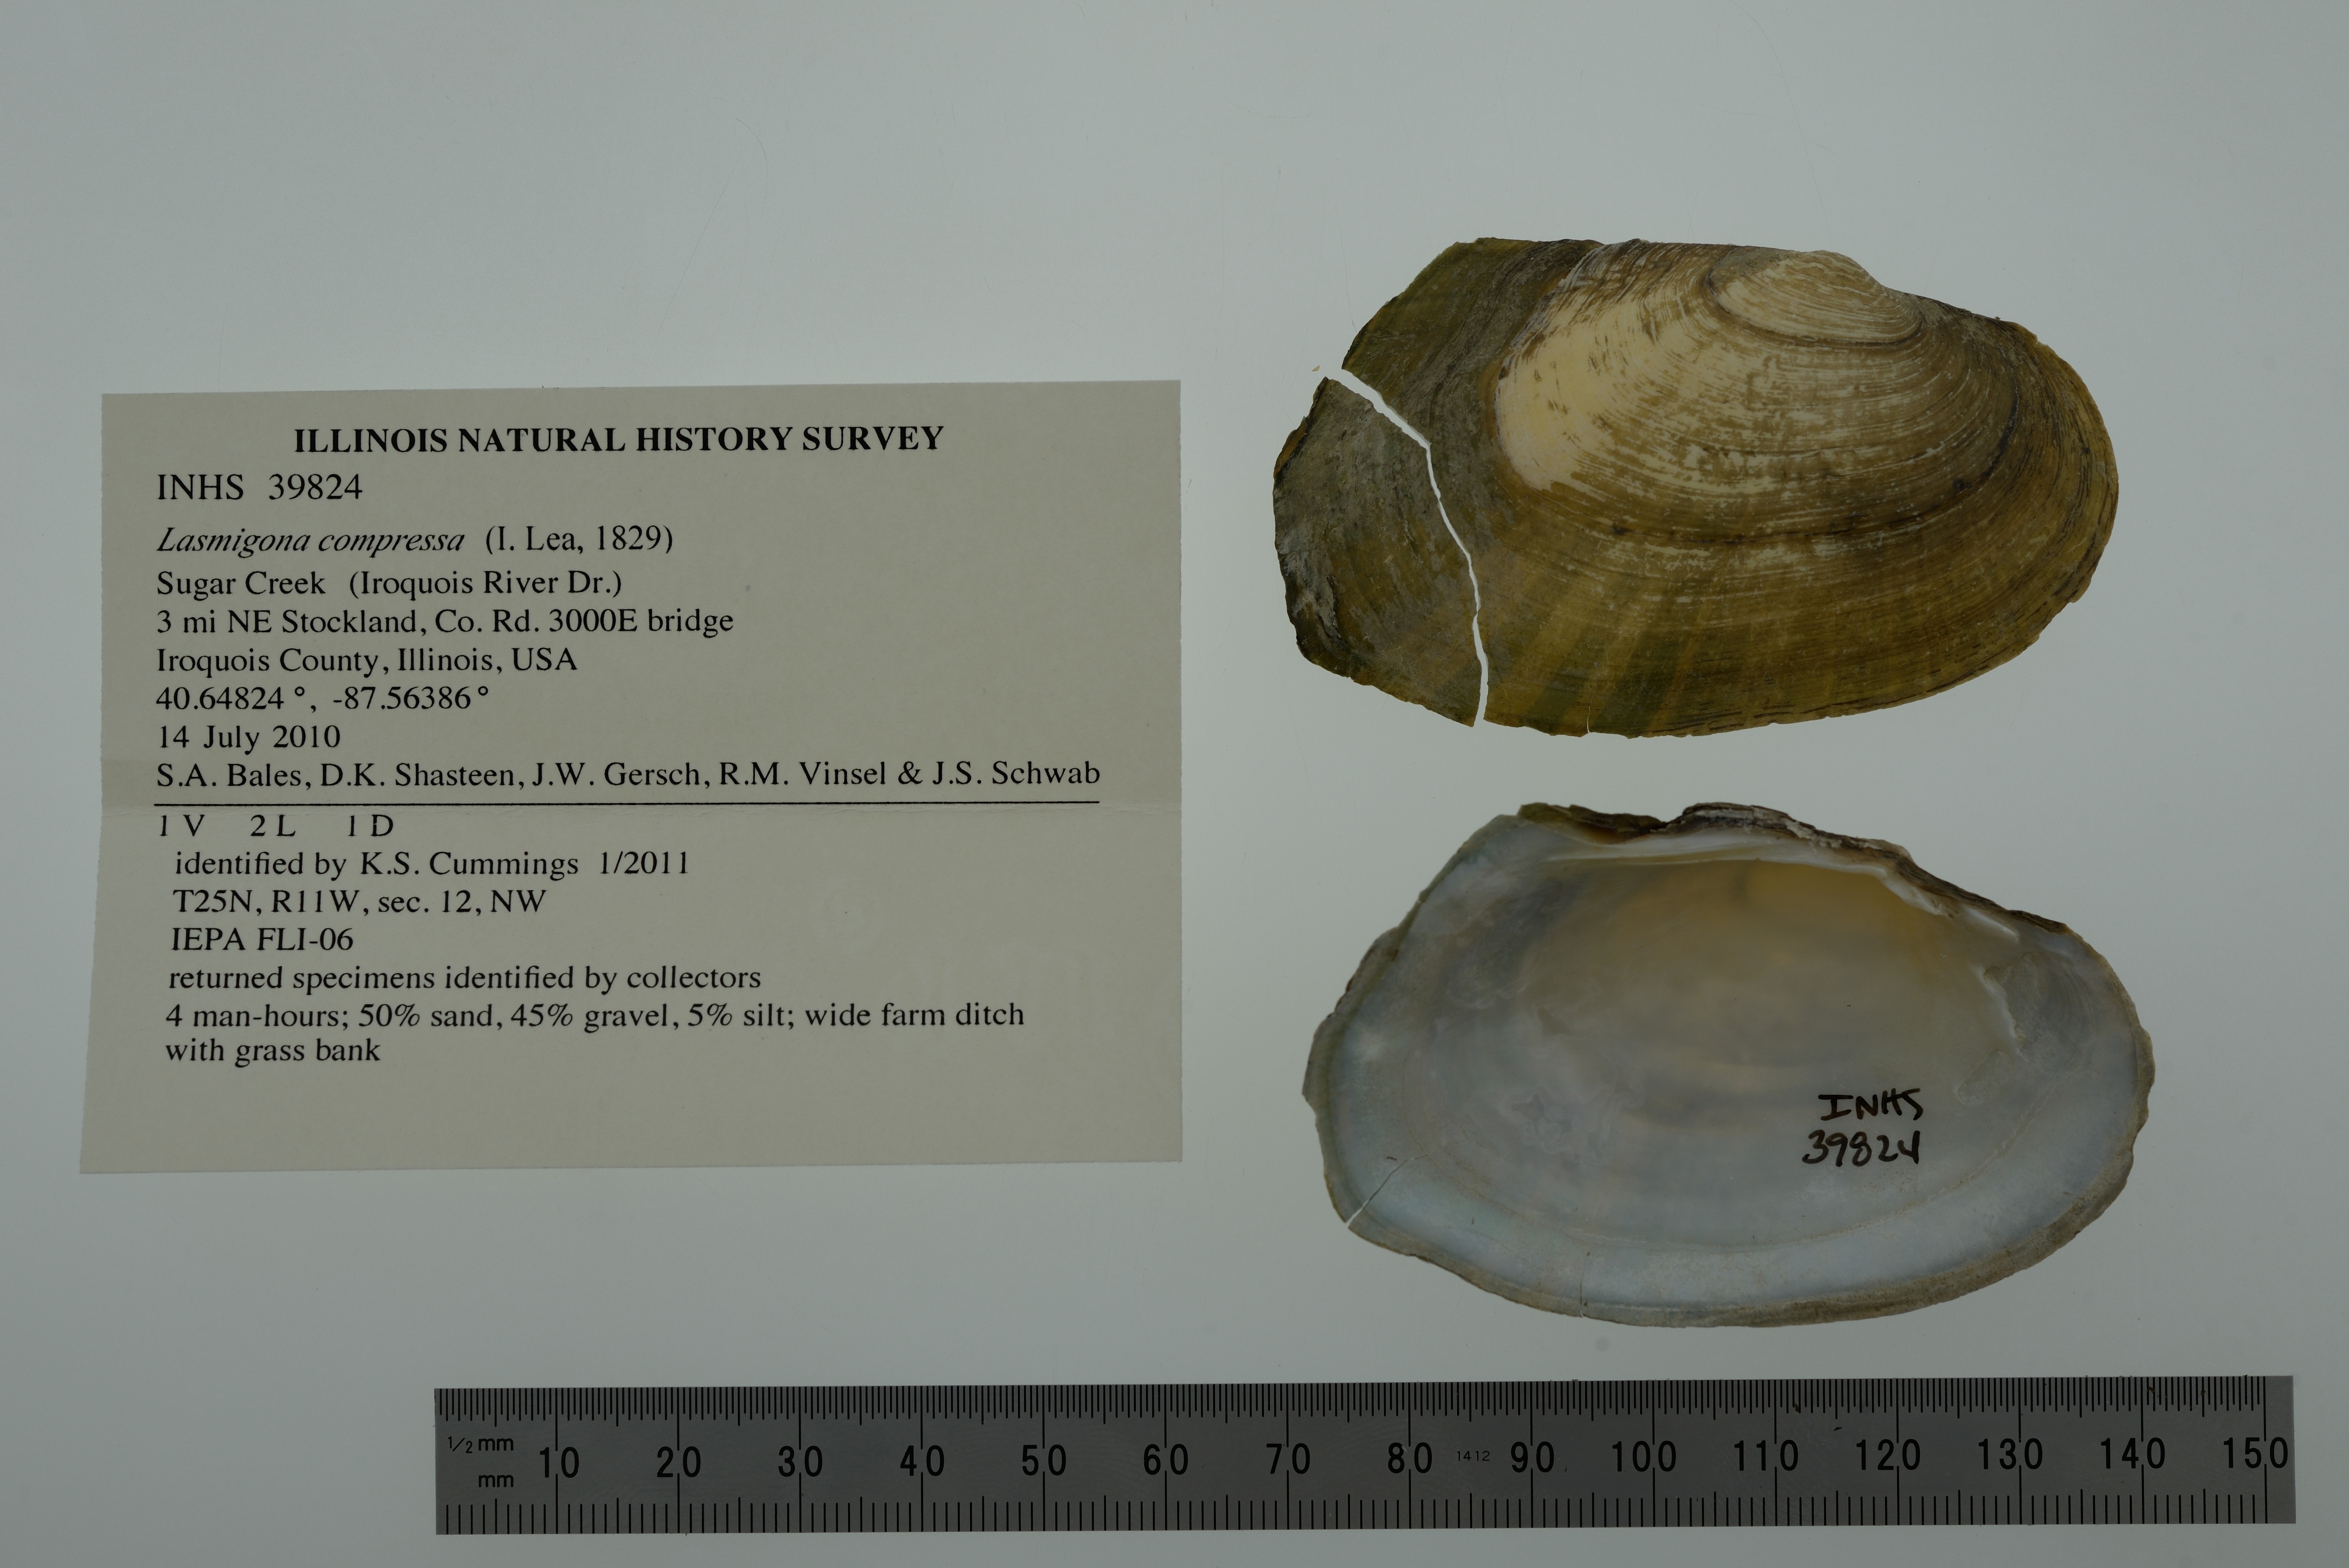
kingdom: Animalia
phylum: Mollusca
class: Bivalvia
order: Unionida
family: Unionidae
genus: Lasmigona
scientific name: Lasmigona compressa
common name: Creek heelsplitter
